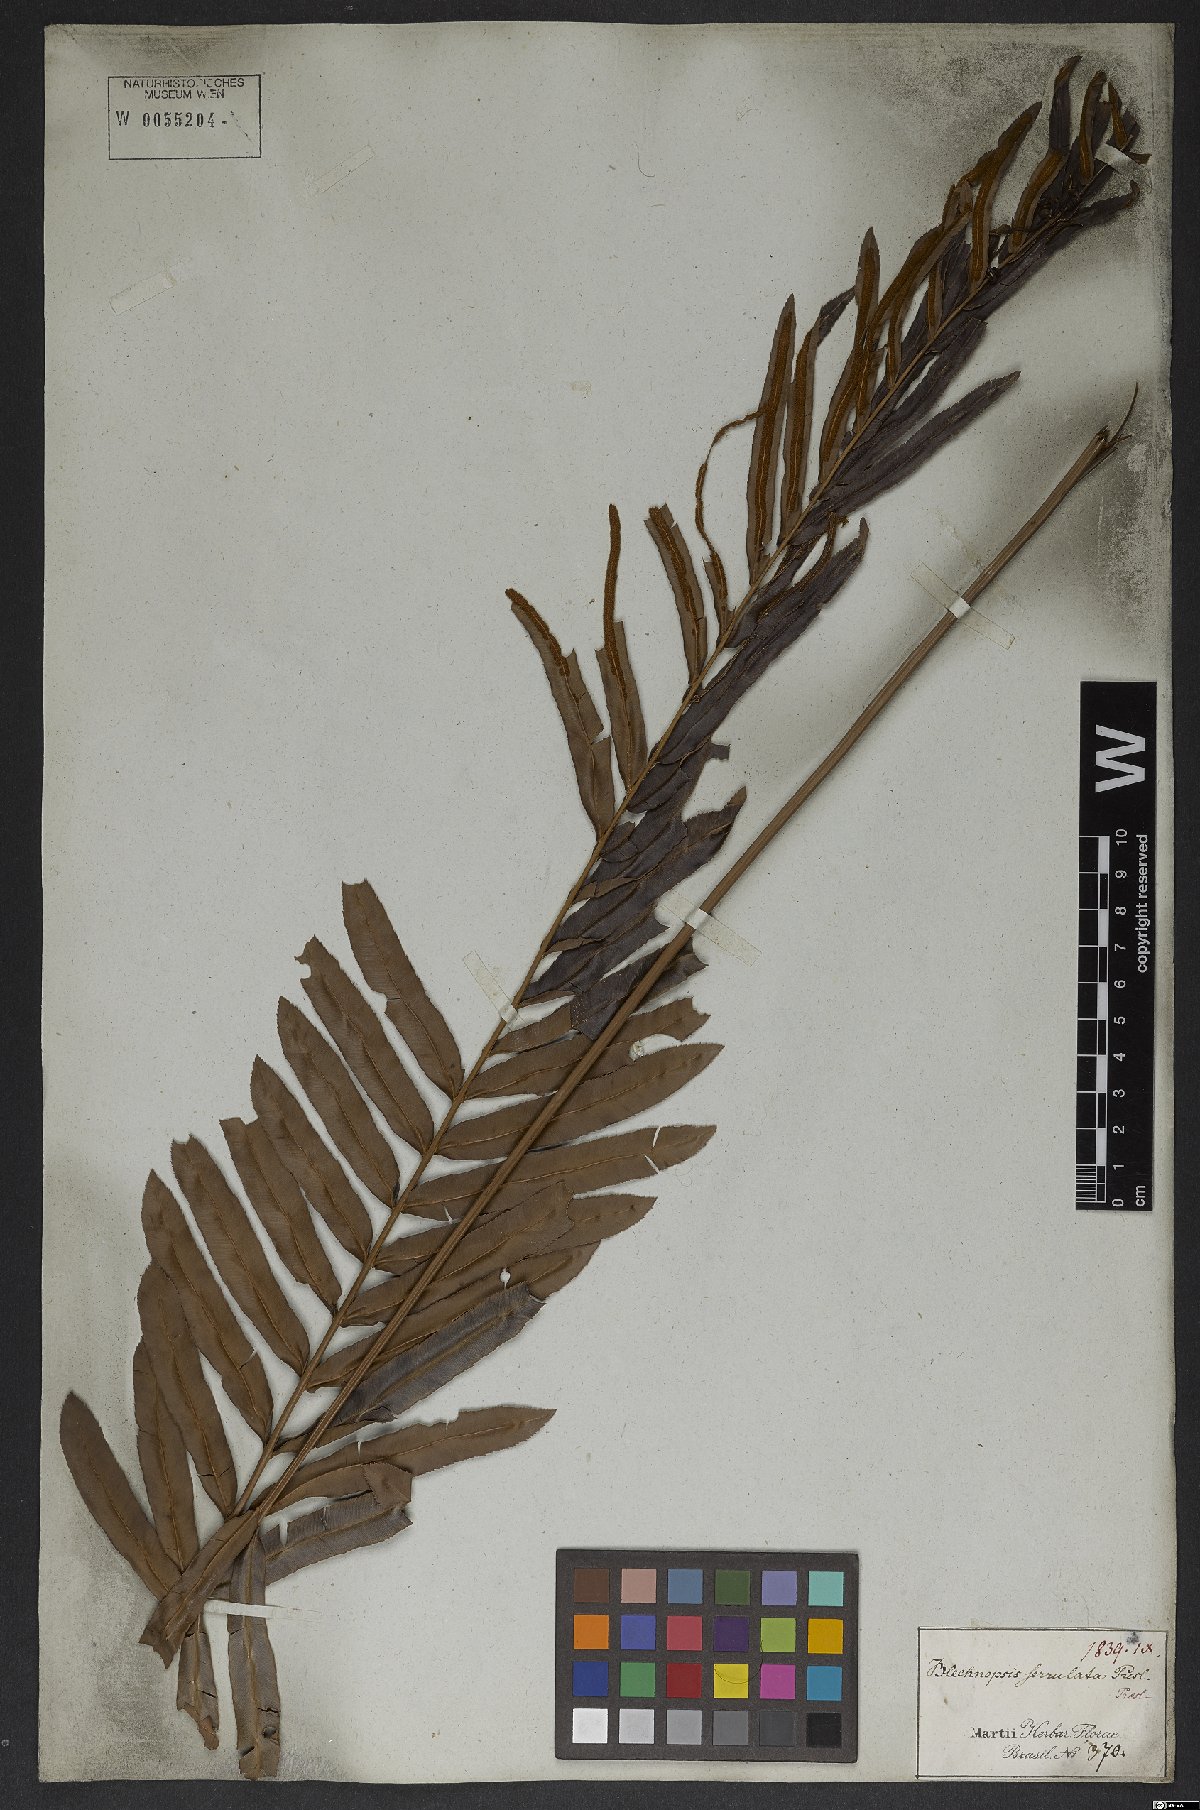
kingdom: Plantae
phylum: Tracheophyta
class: Polypodiopsida
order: Polypodiales
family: Blechnaceae
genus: Telmatoblechnum
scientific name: Telmatoblechnum serrulatum
